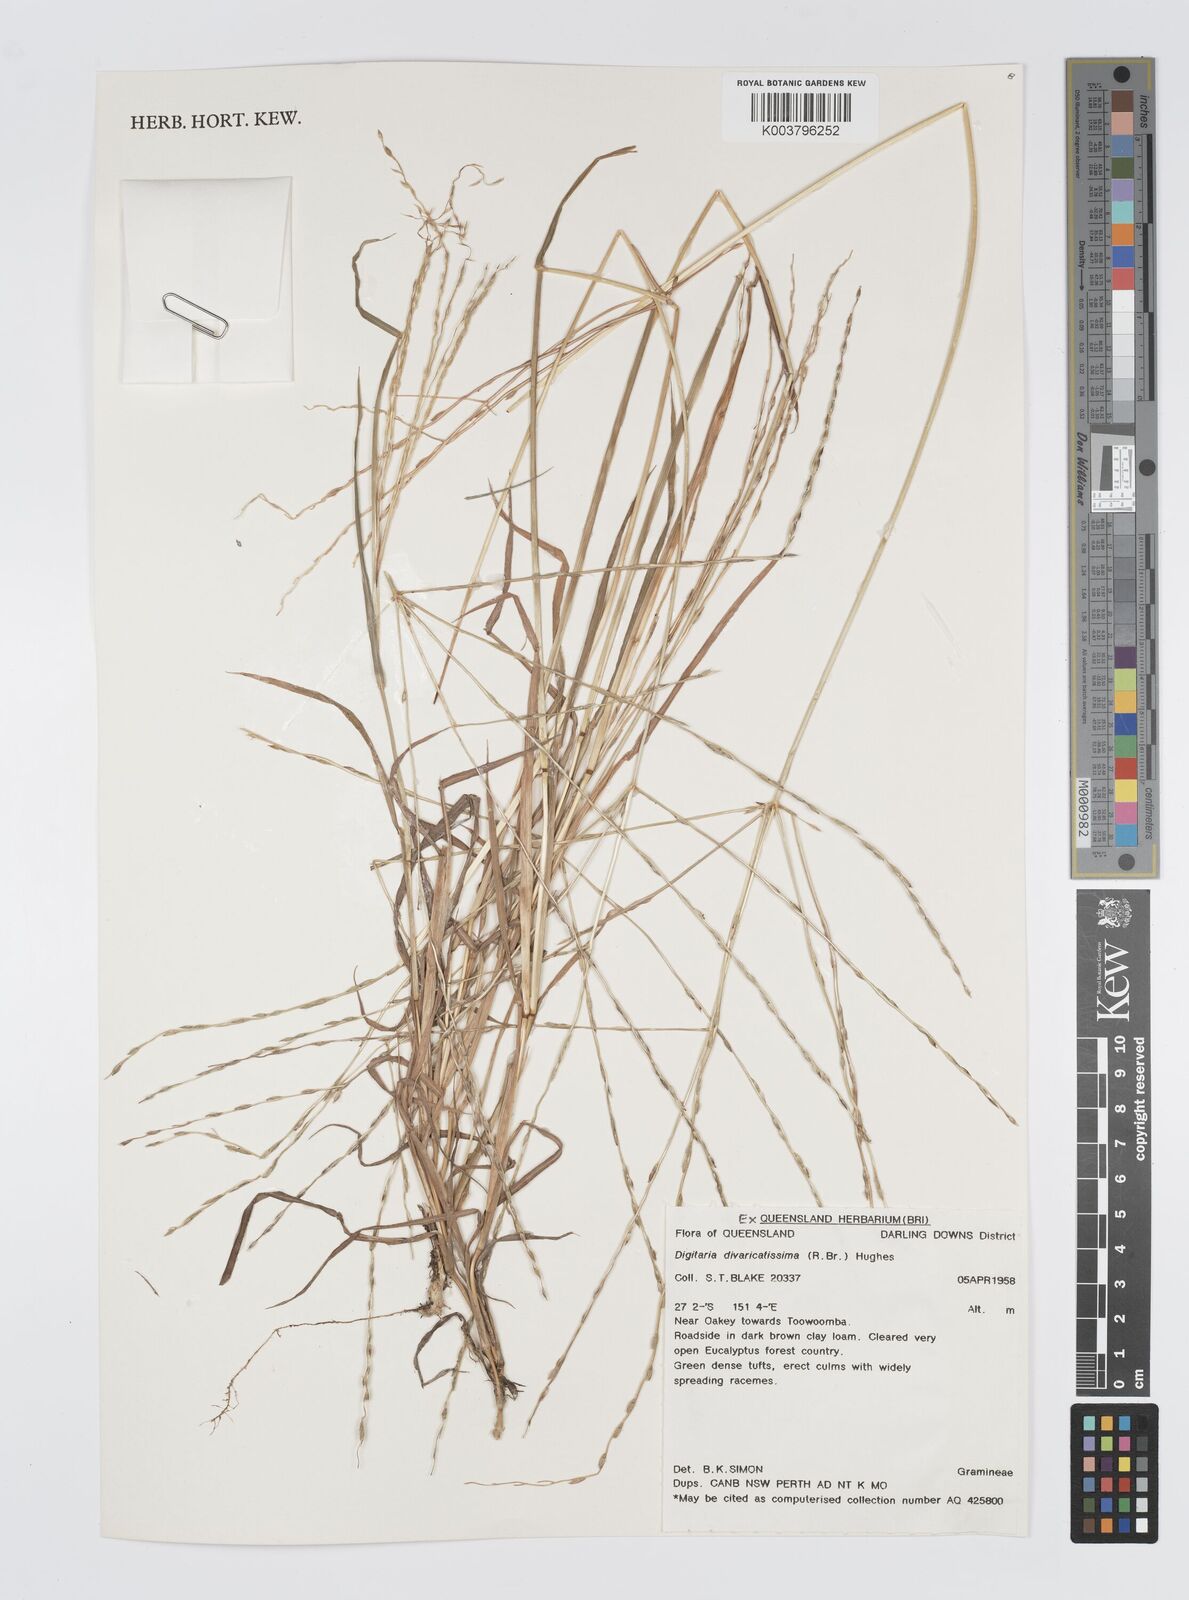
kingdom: Plantae
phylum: Tracheophyta
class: Liliopsida
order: Poales
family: Poaceae
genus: Digitaria
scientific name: Digitaria divaricatissima
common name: Crabgrass
